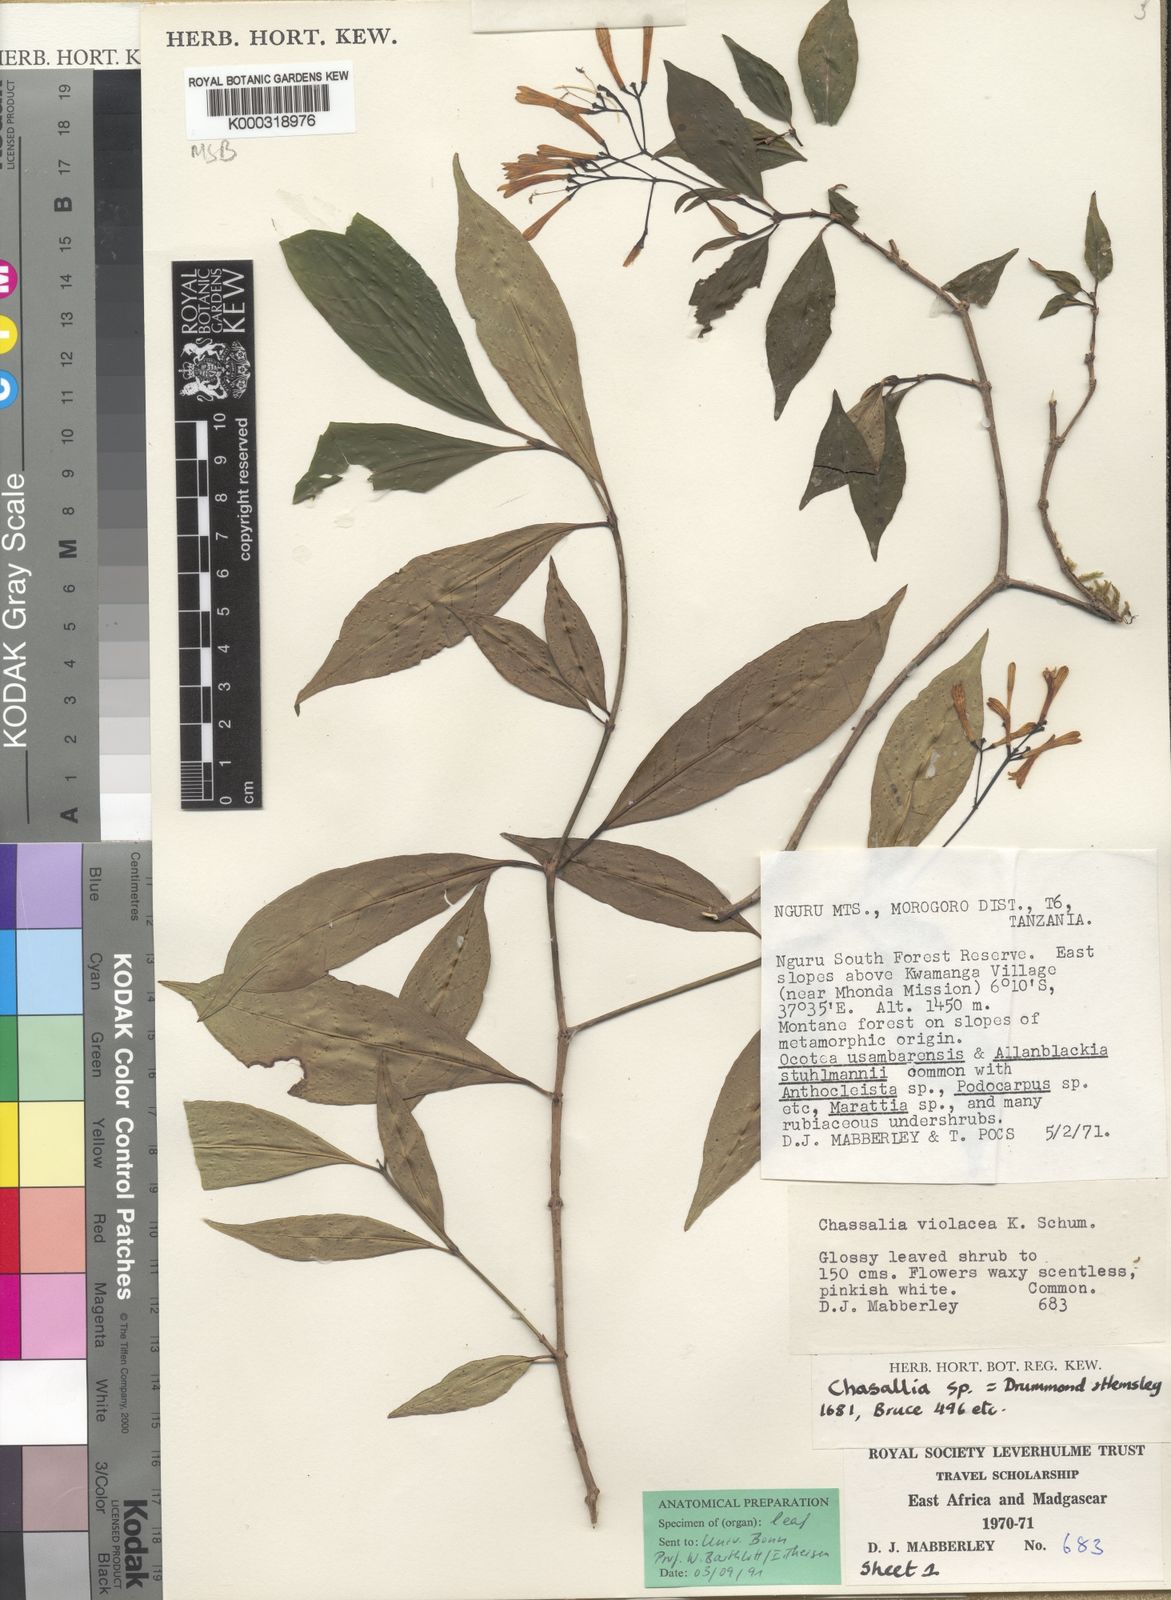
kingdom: Plantae
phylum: Tracheophyta
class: Magnoliopsida
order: Gentianales
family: Rubiaceae
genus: Chassalia
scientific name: Chassalia violacea
